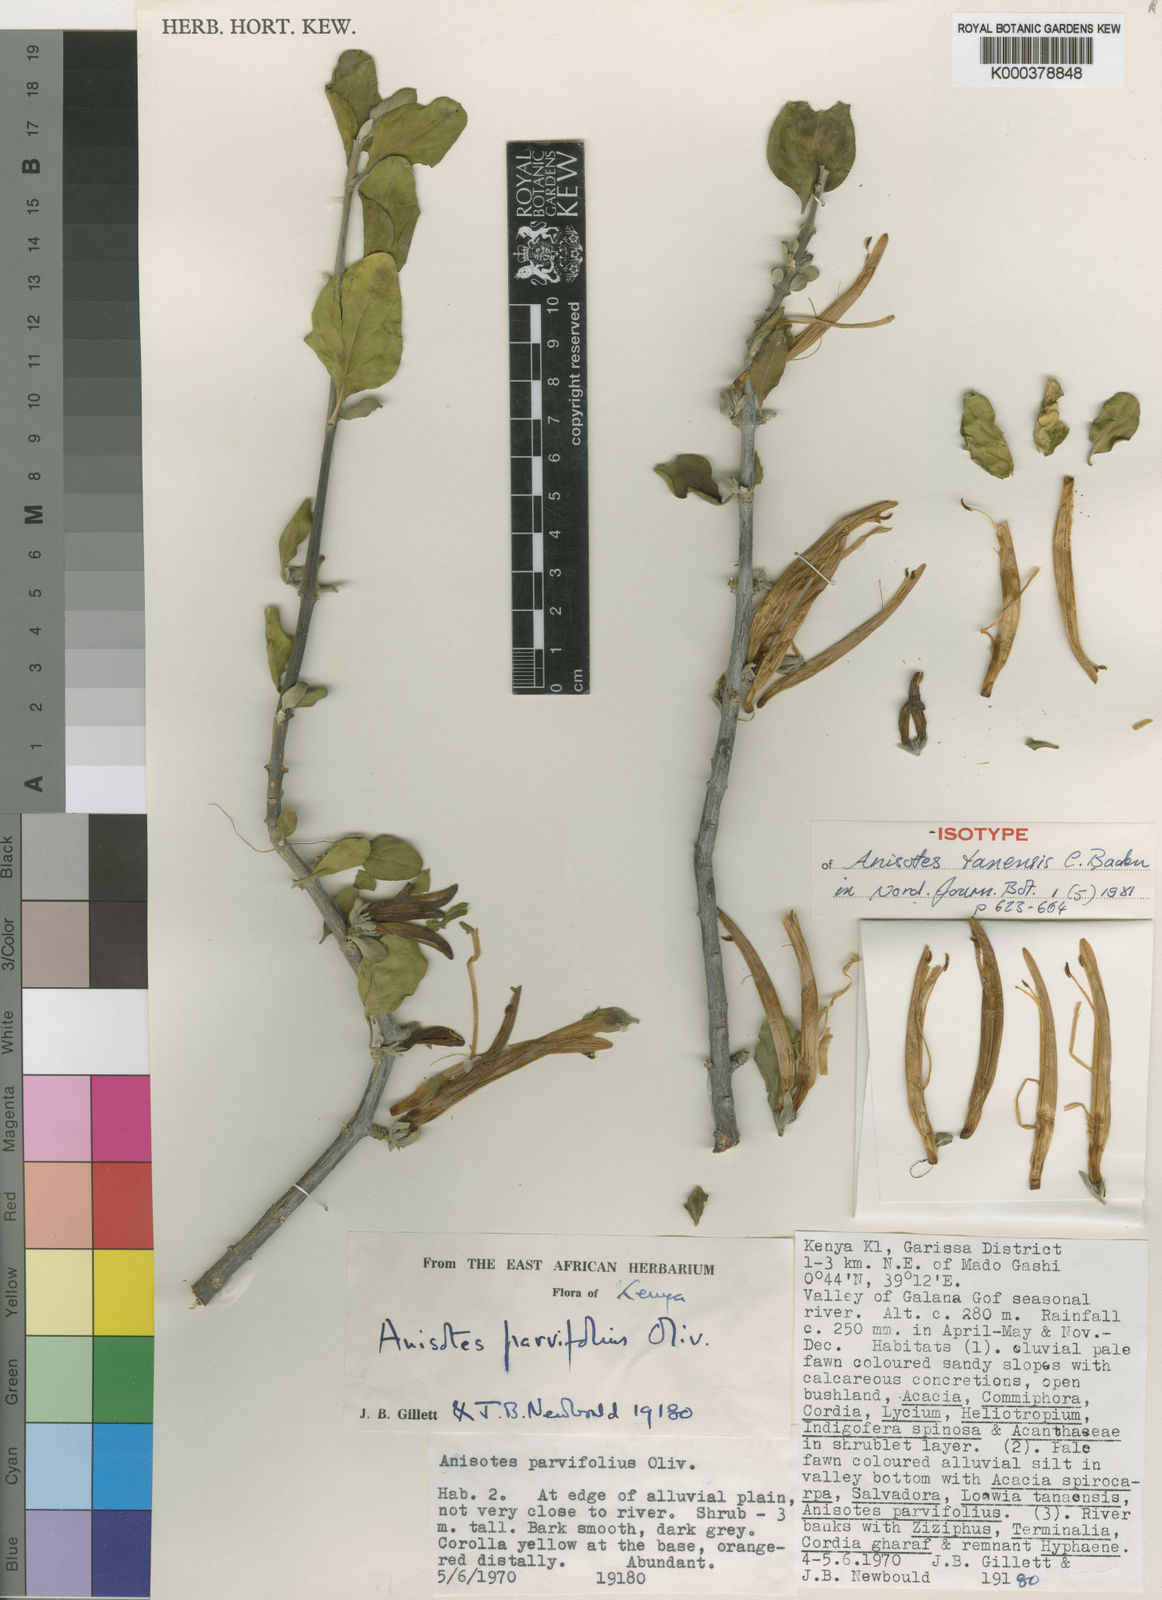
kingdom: Plantae
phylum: Tracheophyta
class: Magnoliopsida
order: Lamiales
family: Acanthaceae
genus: Anisotes
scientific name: Anisotes tanensis
